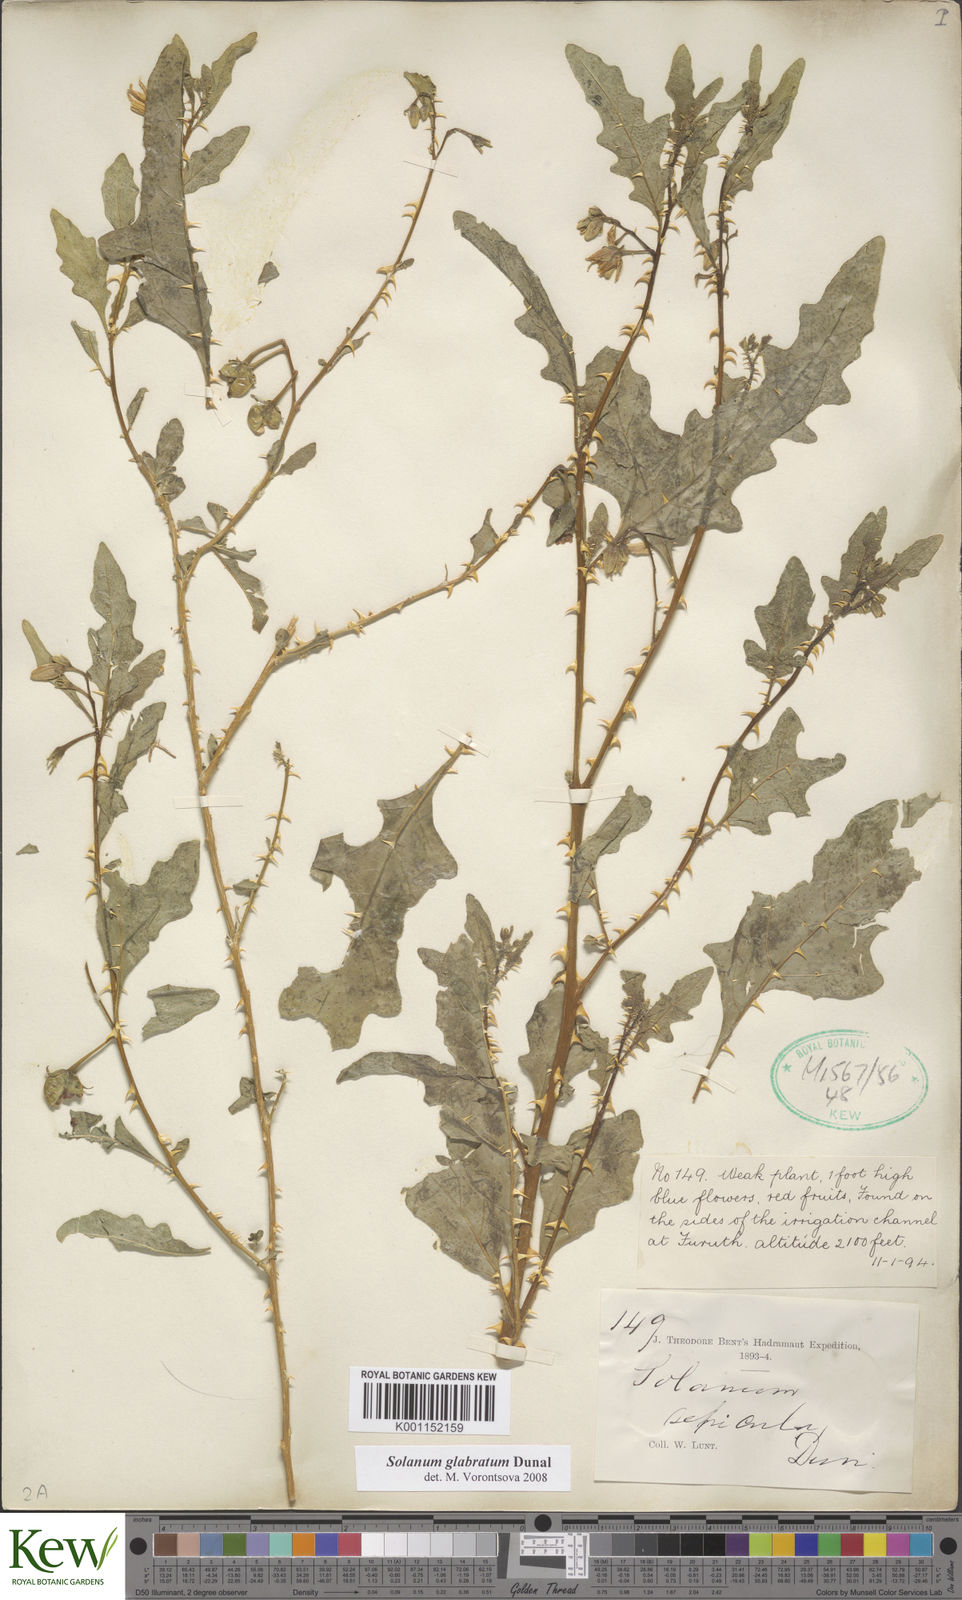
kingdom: Plantae
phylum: Tracheophyta
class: Magnoliopsida
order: Solanales
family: Solanaceae
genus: Solanum
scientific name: Solanum glabratum
